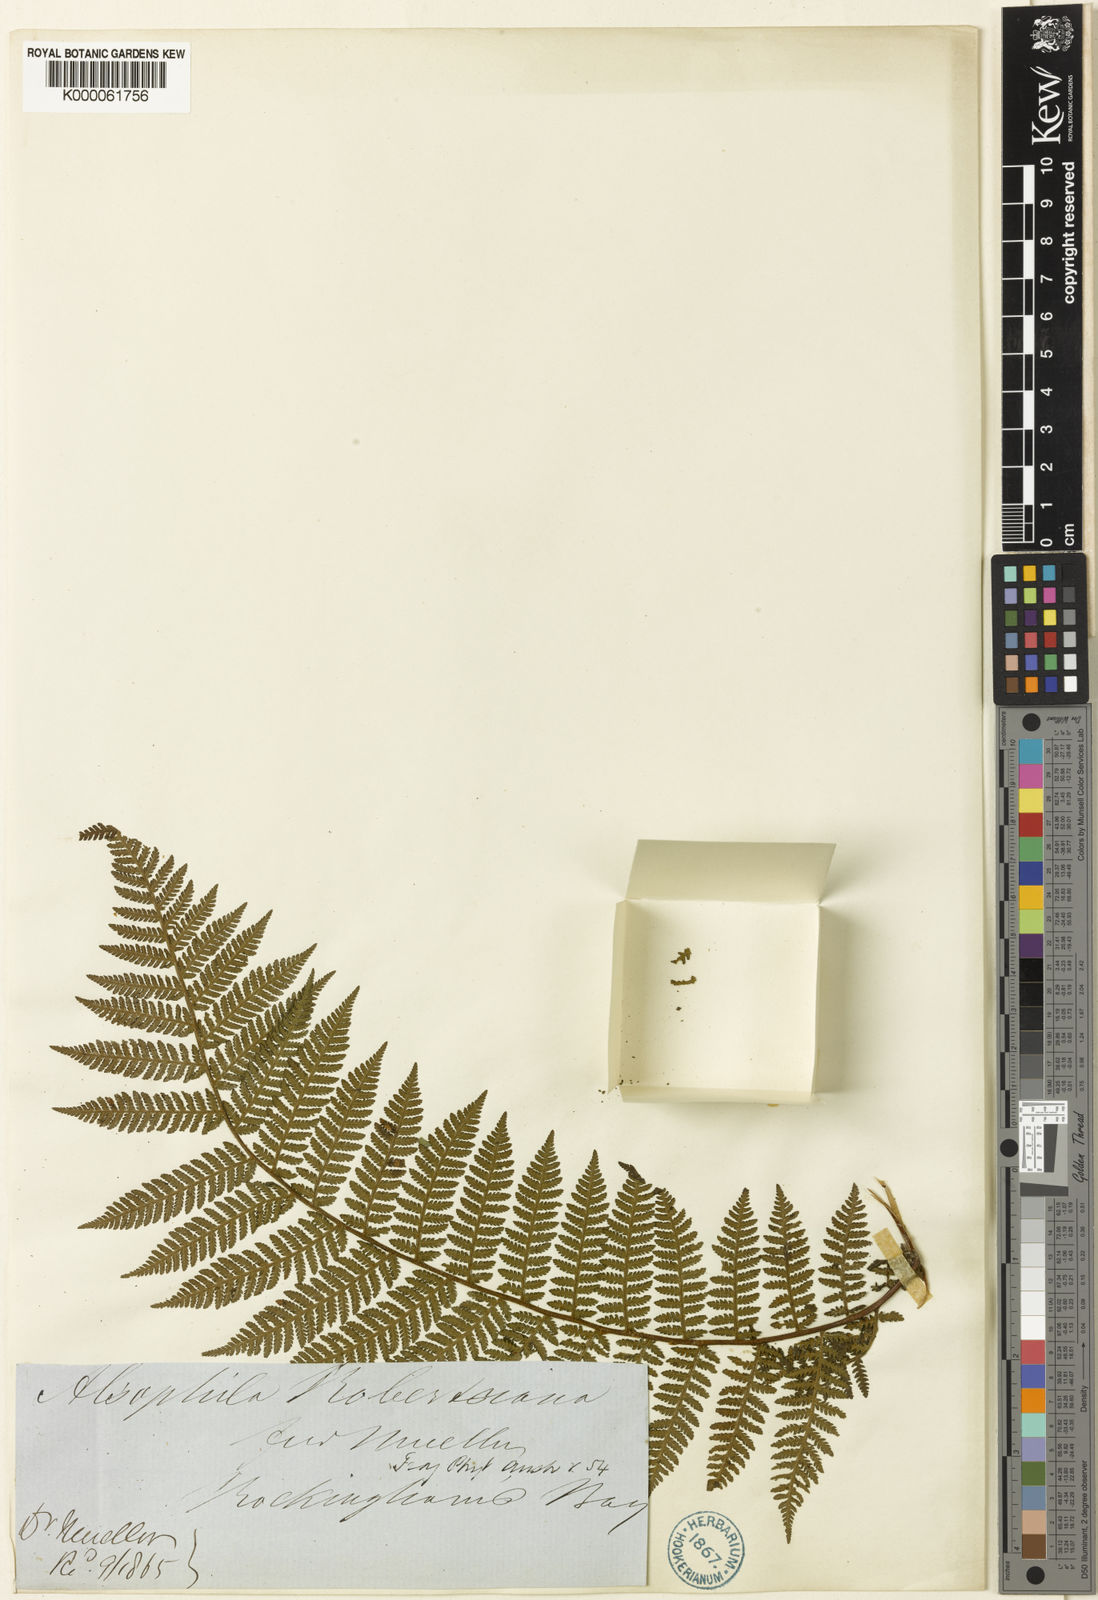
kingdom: Plantae
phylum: Tracheophyta
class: Polypodiopsida
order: Cyatheales
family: Cyatheaceae
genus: Cyathea
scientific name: Cyathea robertsiana
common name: Lacy tree fern
